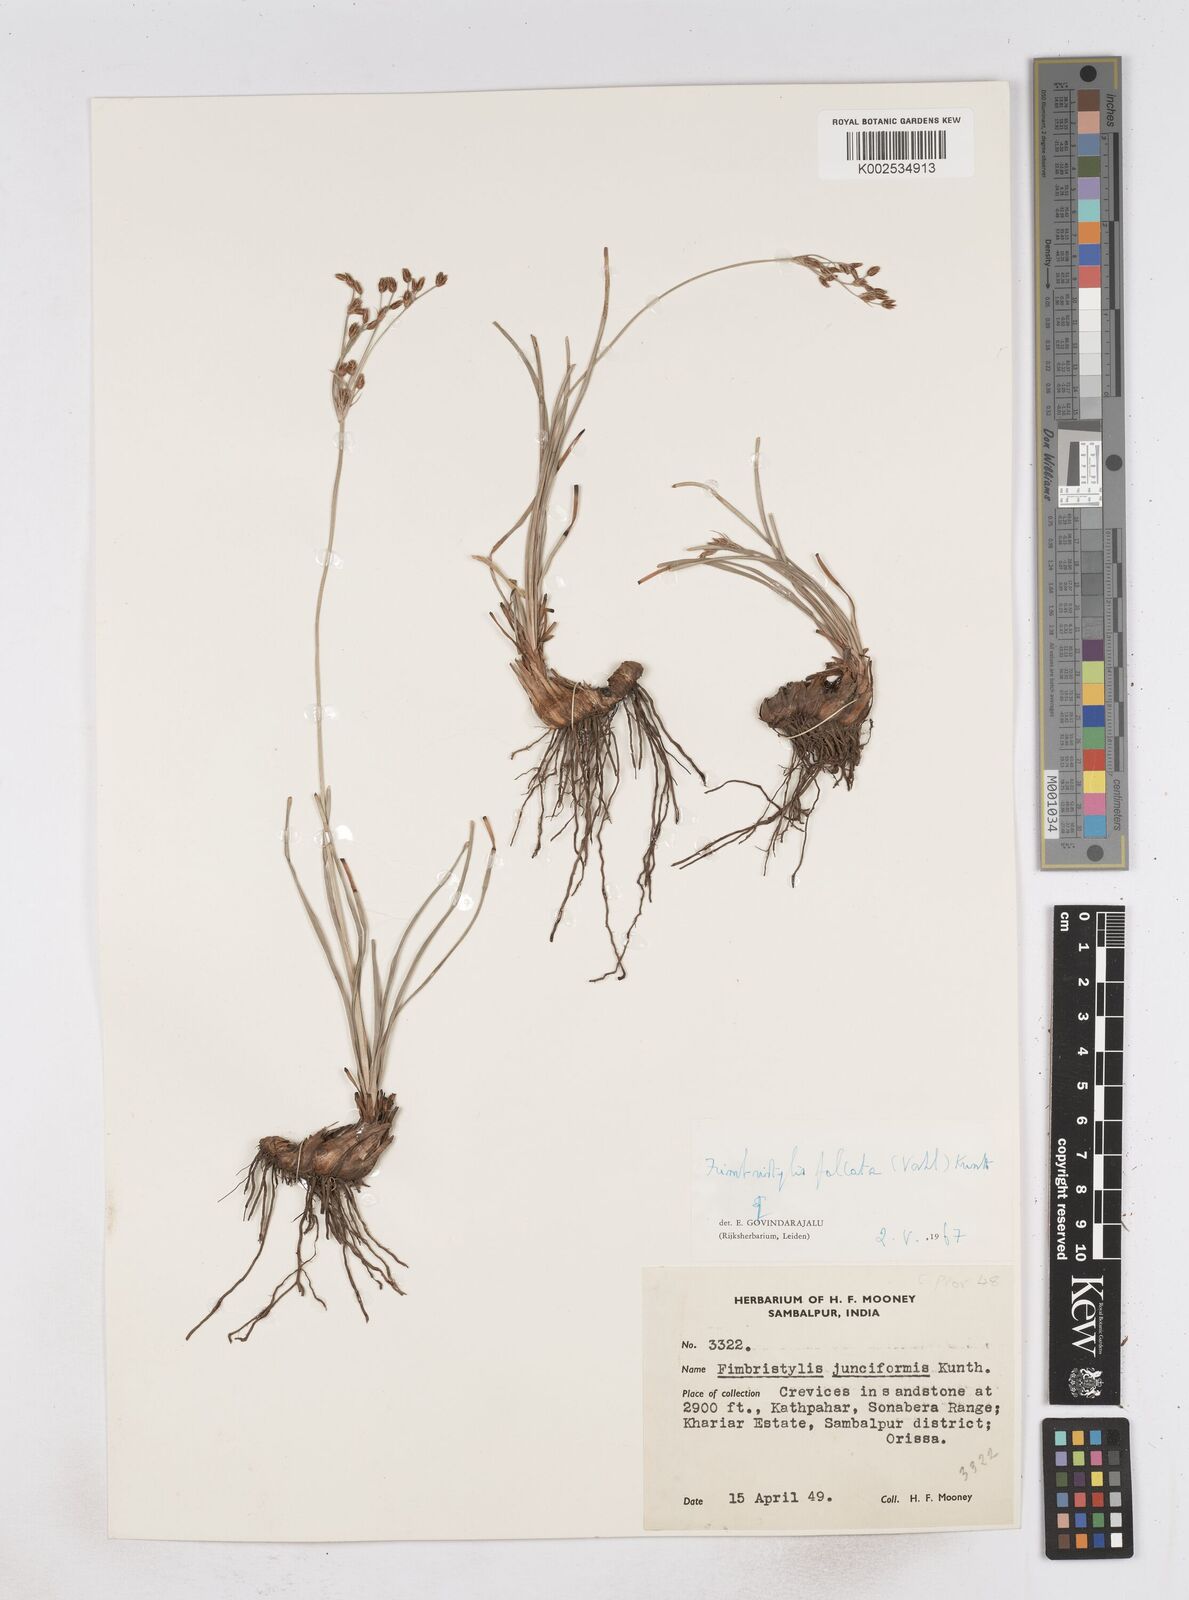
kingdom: Plantae
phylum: Tracheophyta
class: Liliopsida
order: Poales
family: Cyperaceae
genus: Fimbristylis
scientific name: Fimbristylis falcata
